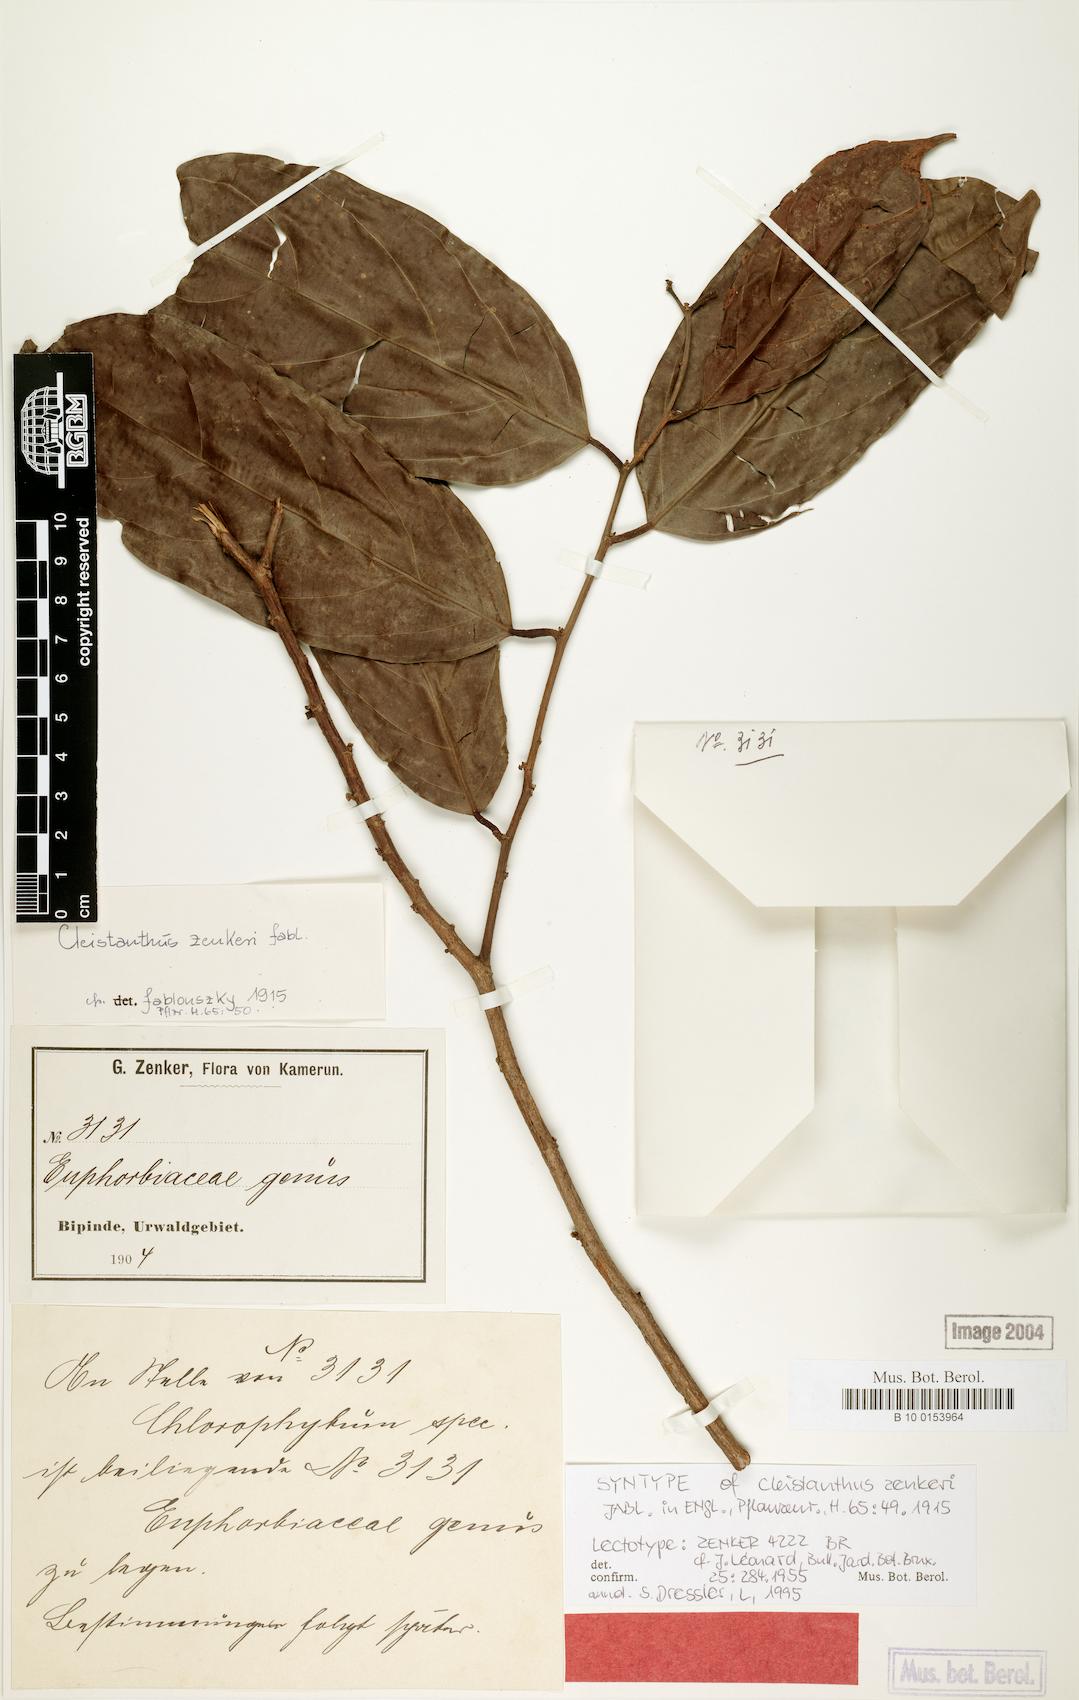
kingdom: Plantae
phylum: Tracheophyta
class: Magnoliopsida
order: Malpighiales
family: Phyllanthaceae
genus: Cleistanthus
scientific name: Cleistanthus zenkeri
